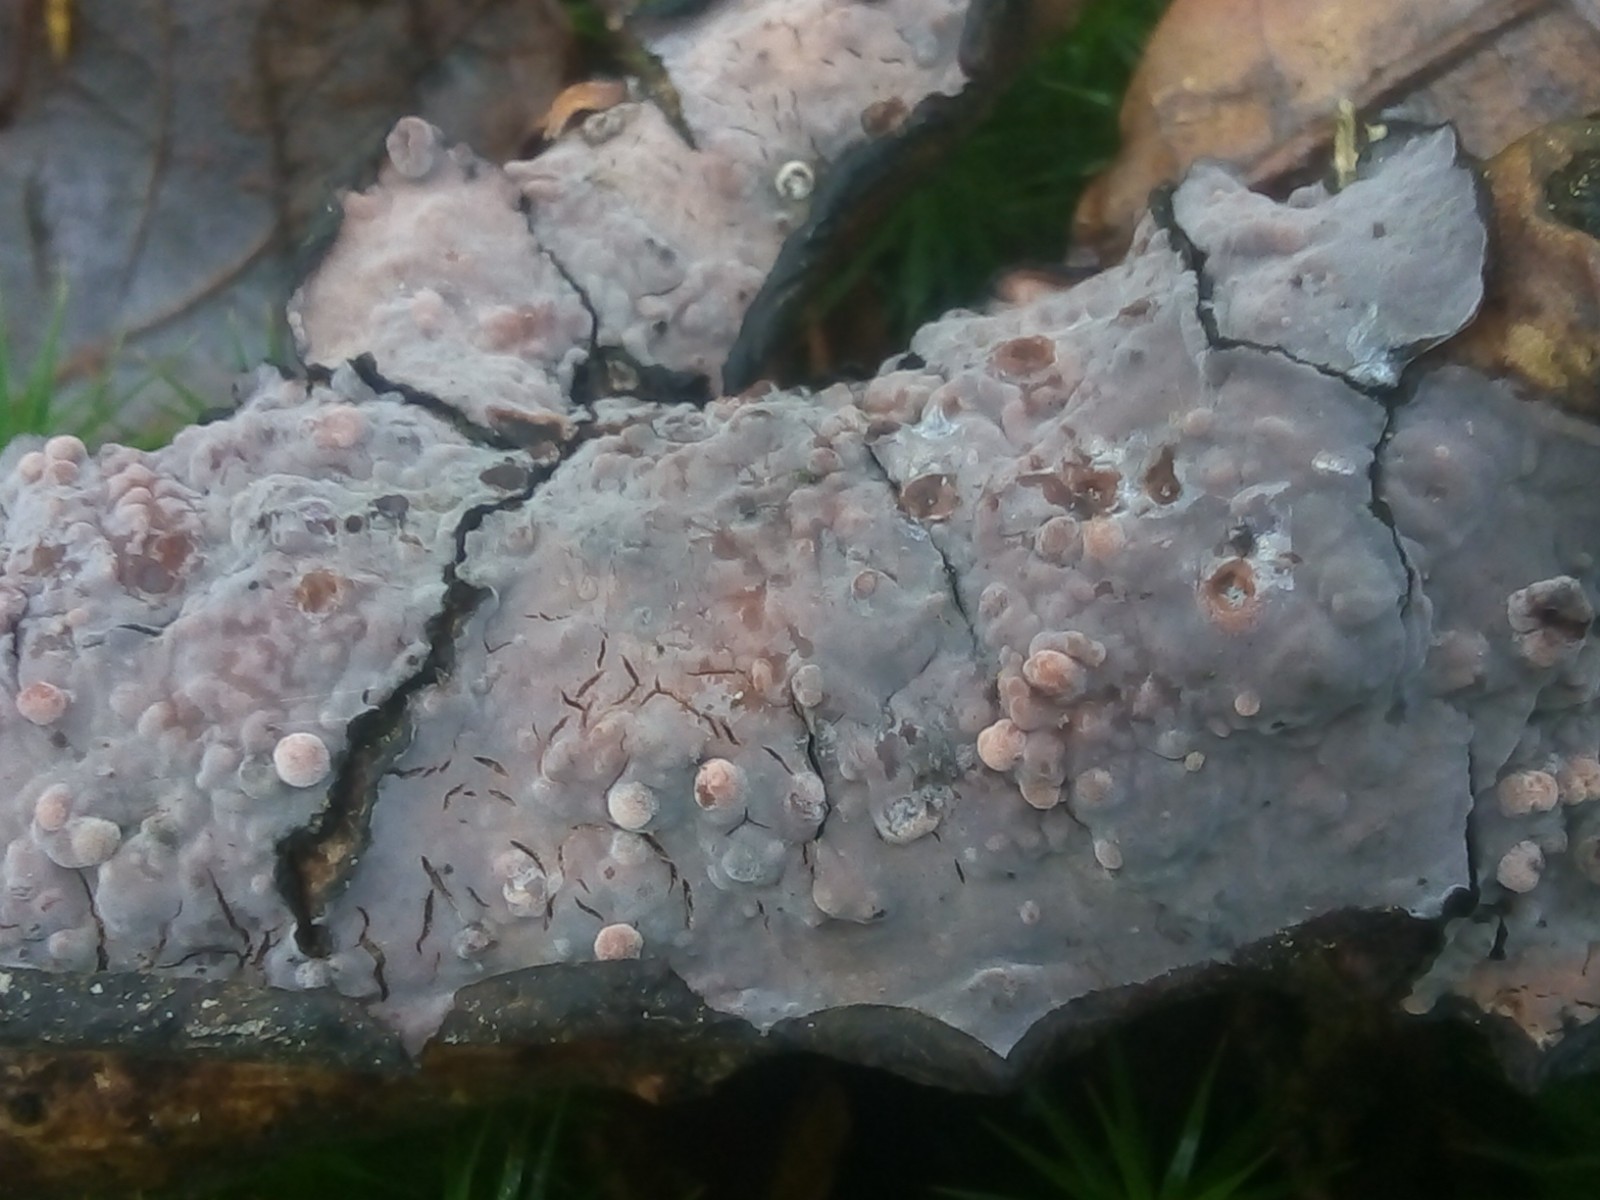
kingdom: Fungi
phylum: Basidiomycota
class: Agaricomycetes
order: Russulales
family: Peniophoraceae
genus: Peniophora
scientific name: Peniophora quercina
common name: ege-voksskind
